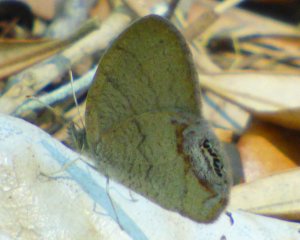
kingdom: Animalia
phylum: Arthropoda
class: Insecta
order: Lepidoptera
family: Nymphalidae
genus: Euptychia
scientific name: Euptychia cornelius
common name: Gemmed Satyr
